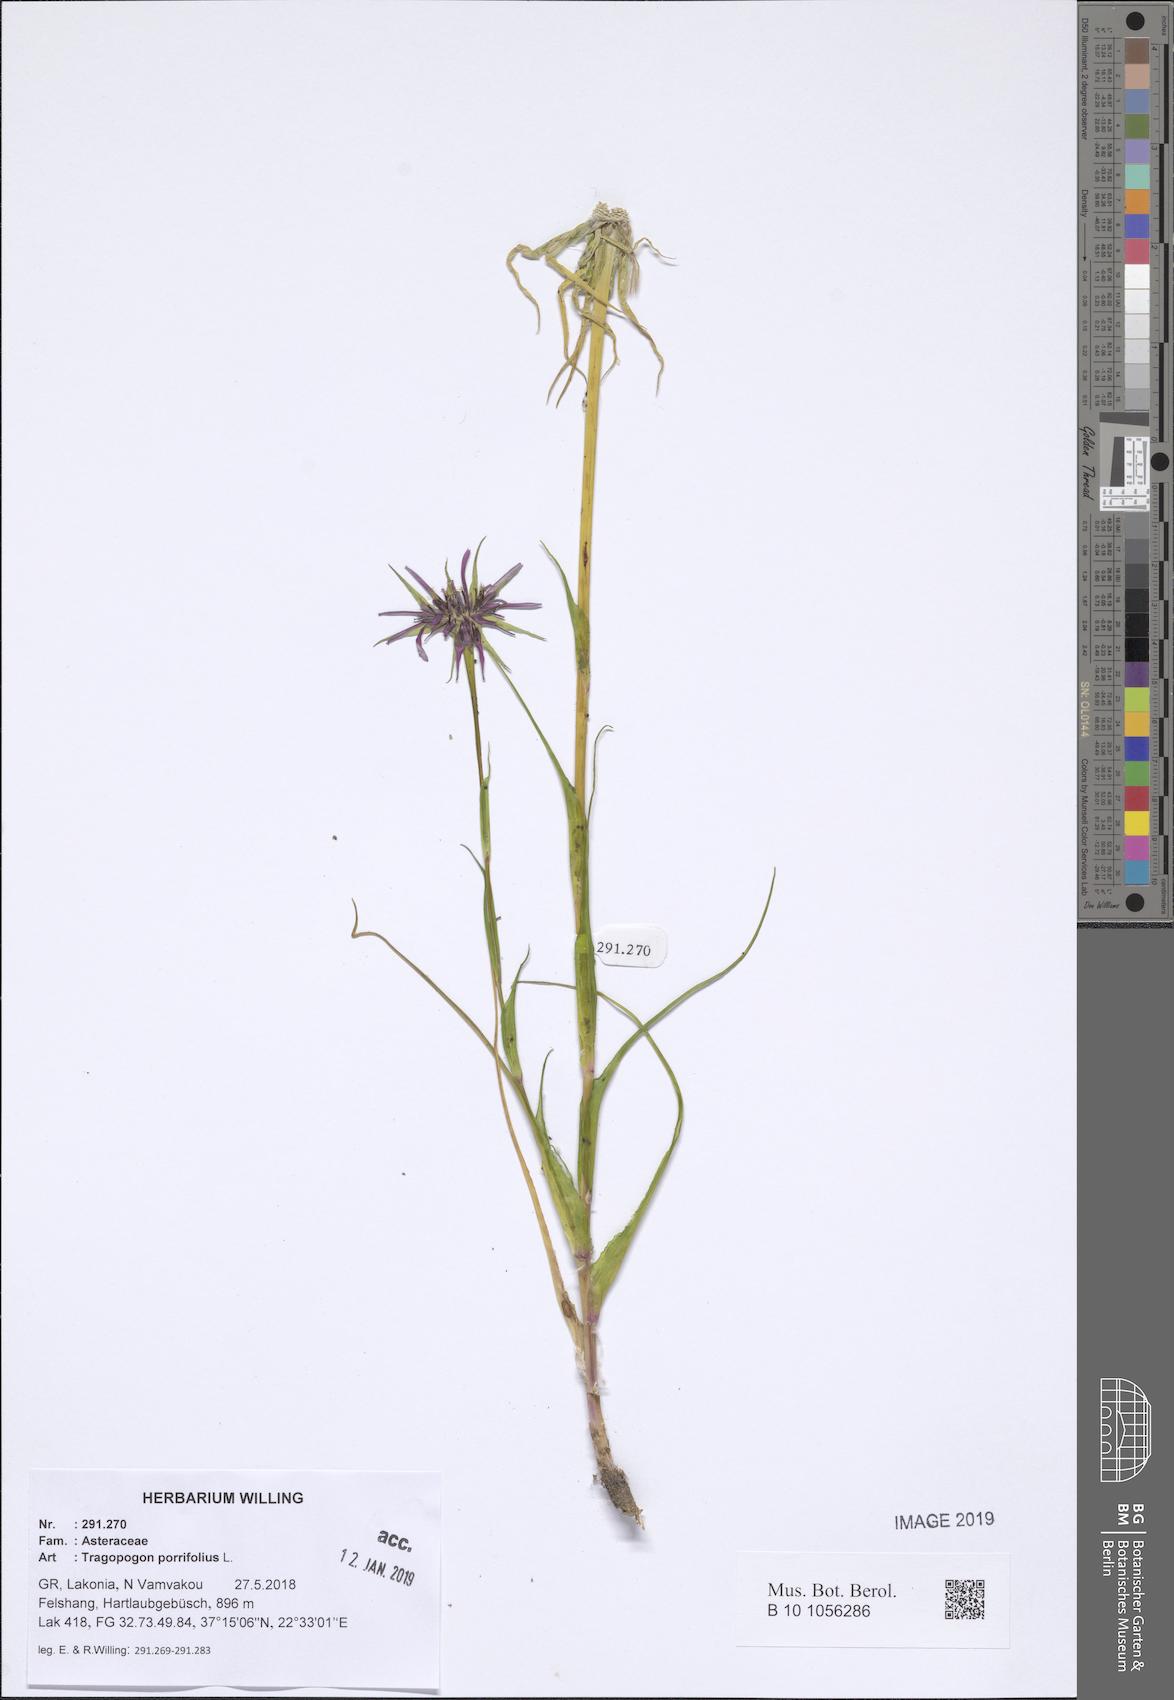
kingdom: Plantae
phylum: Tracheophyta
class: Magnoliopsida
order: Asterales
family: Asteraceae
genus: Tragopogon
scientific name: Tragopogon porrifolius
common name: Salsify
